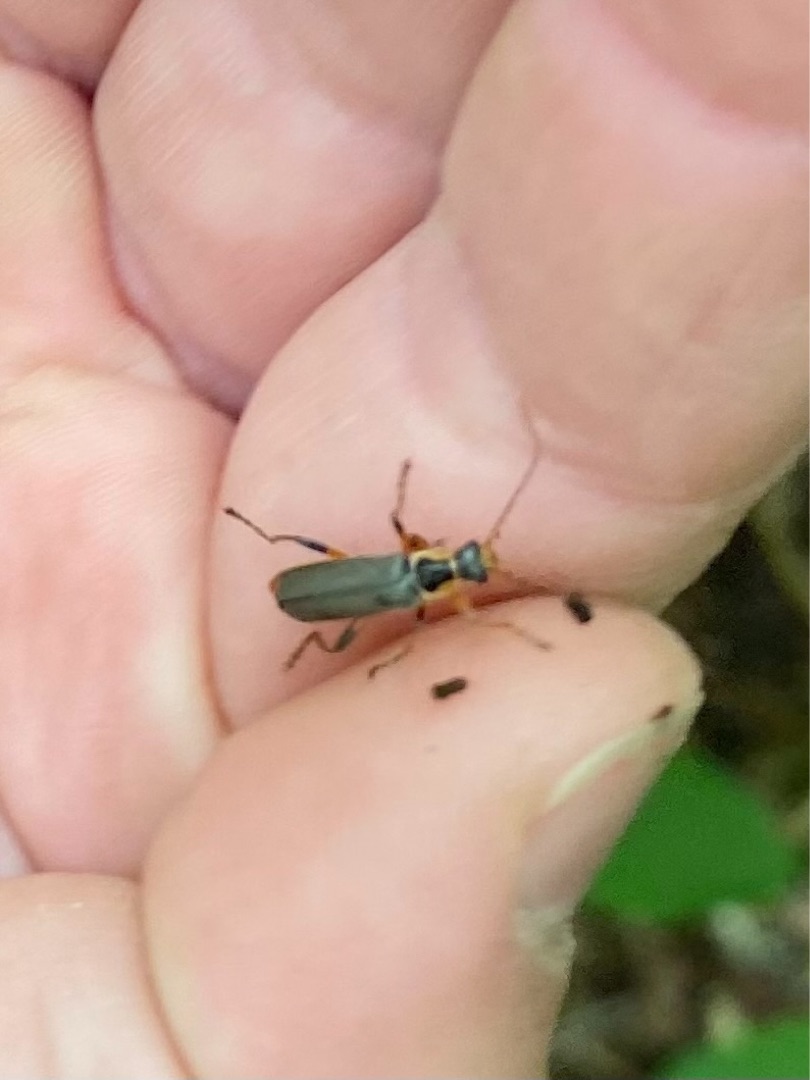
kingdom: Animalia
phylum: Arthropoda
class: Insecta
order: Coleoptera
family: Cantharidae
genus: Cantharis
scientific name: Cantharis nigricans
